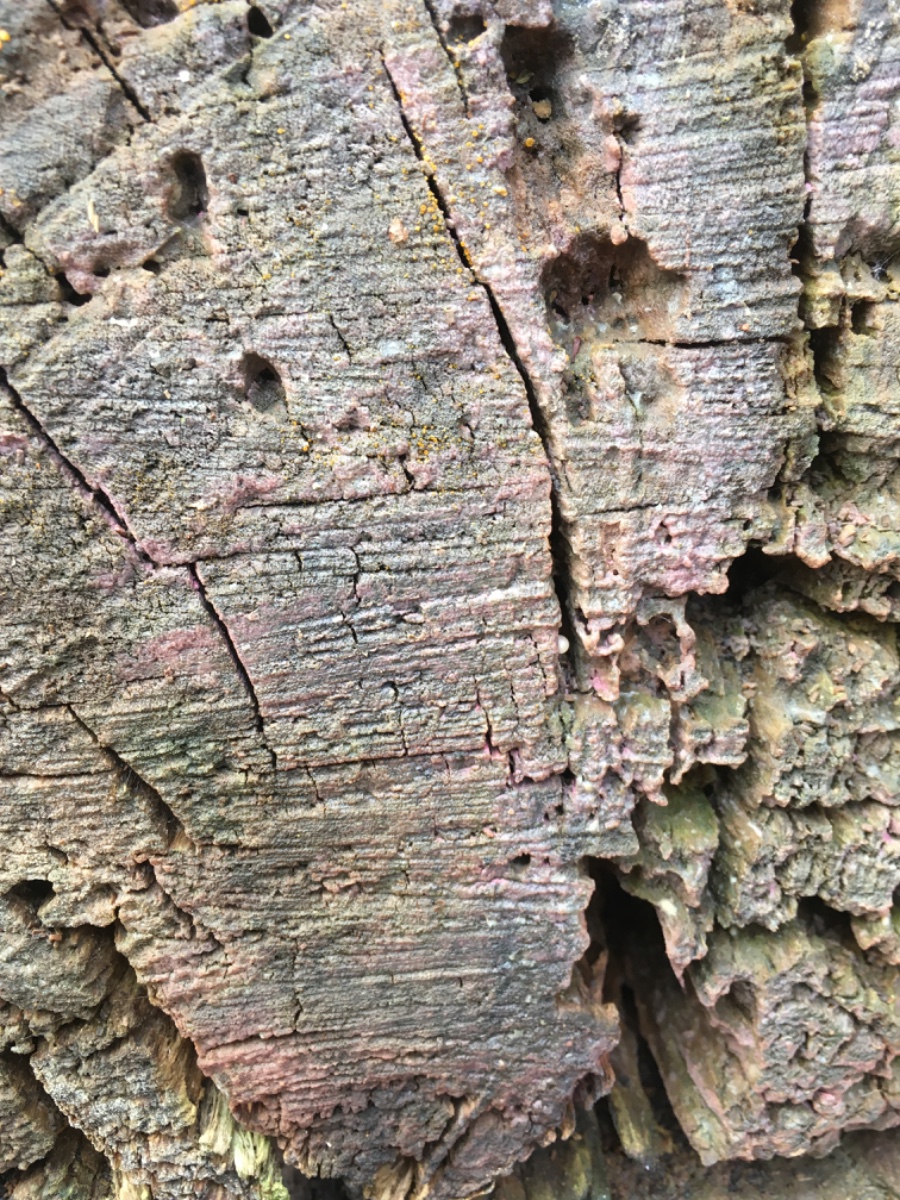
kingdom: Fungi
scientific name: Fungi
